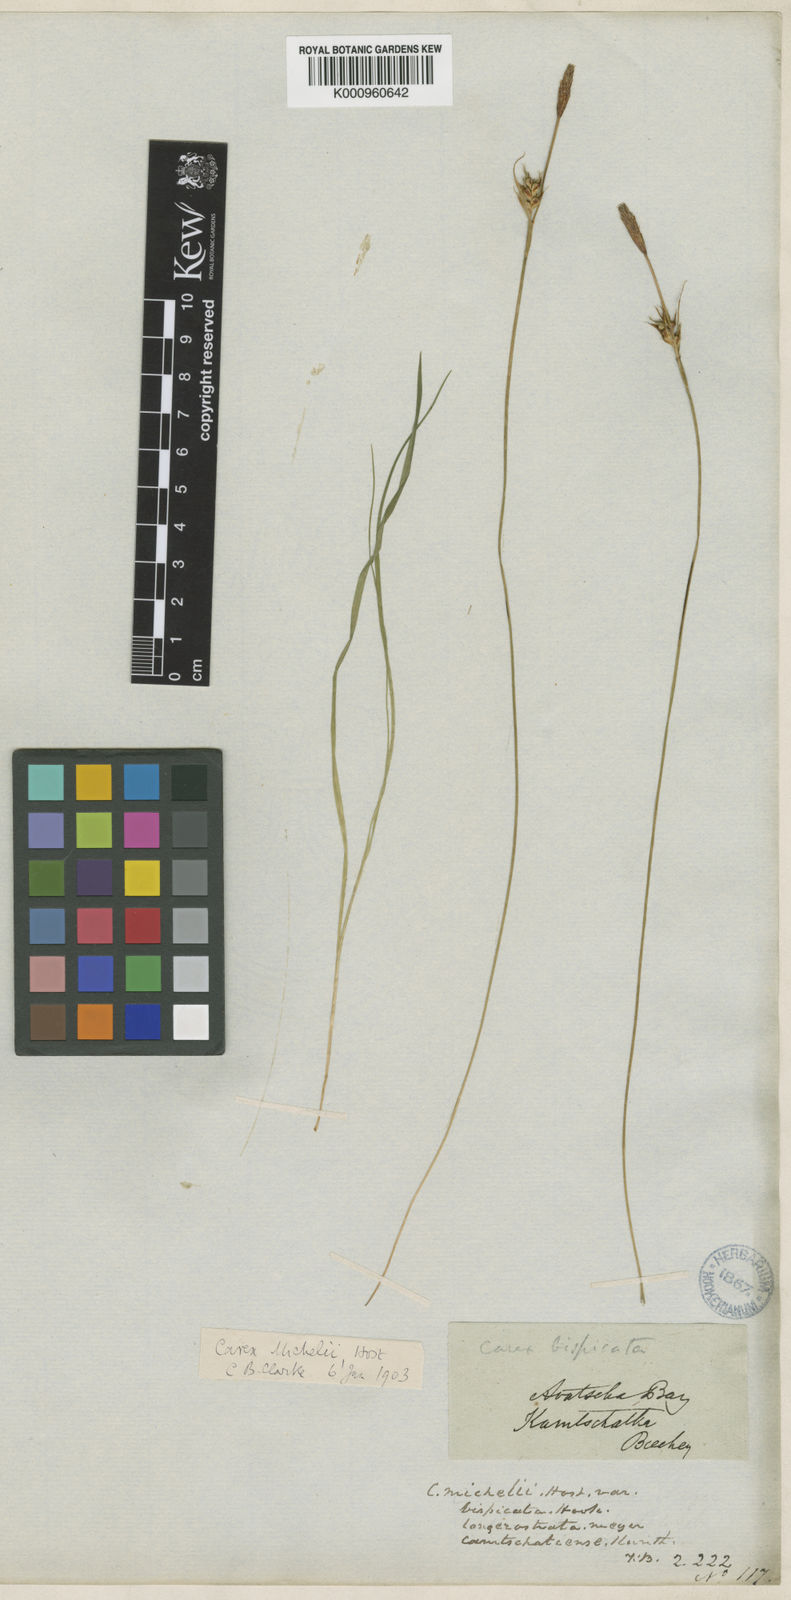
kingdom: Plantae
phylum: Tracheophyta
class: Liliopsida
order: Poales
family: Cyperaceae
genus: Carex
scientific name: Carex longerostrata
